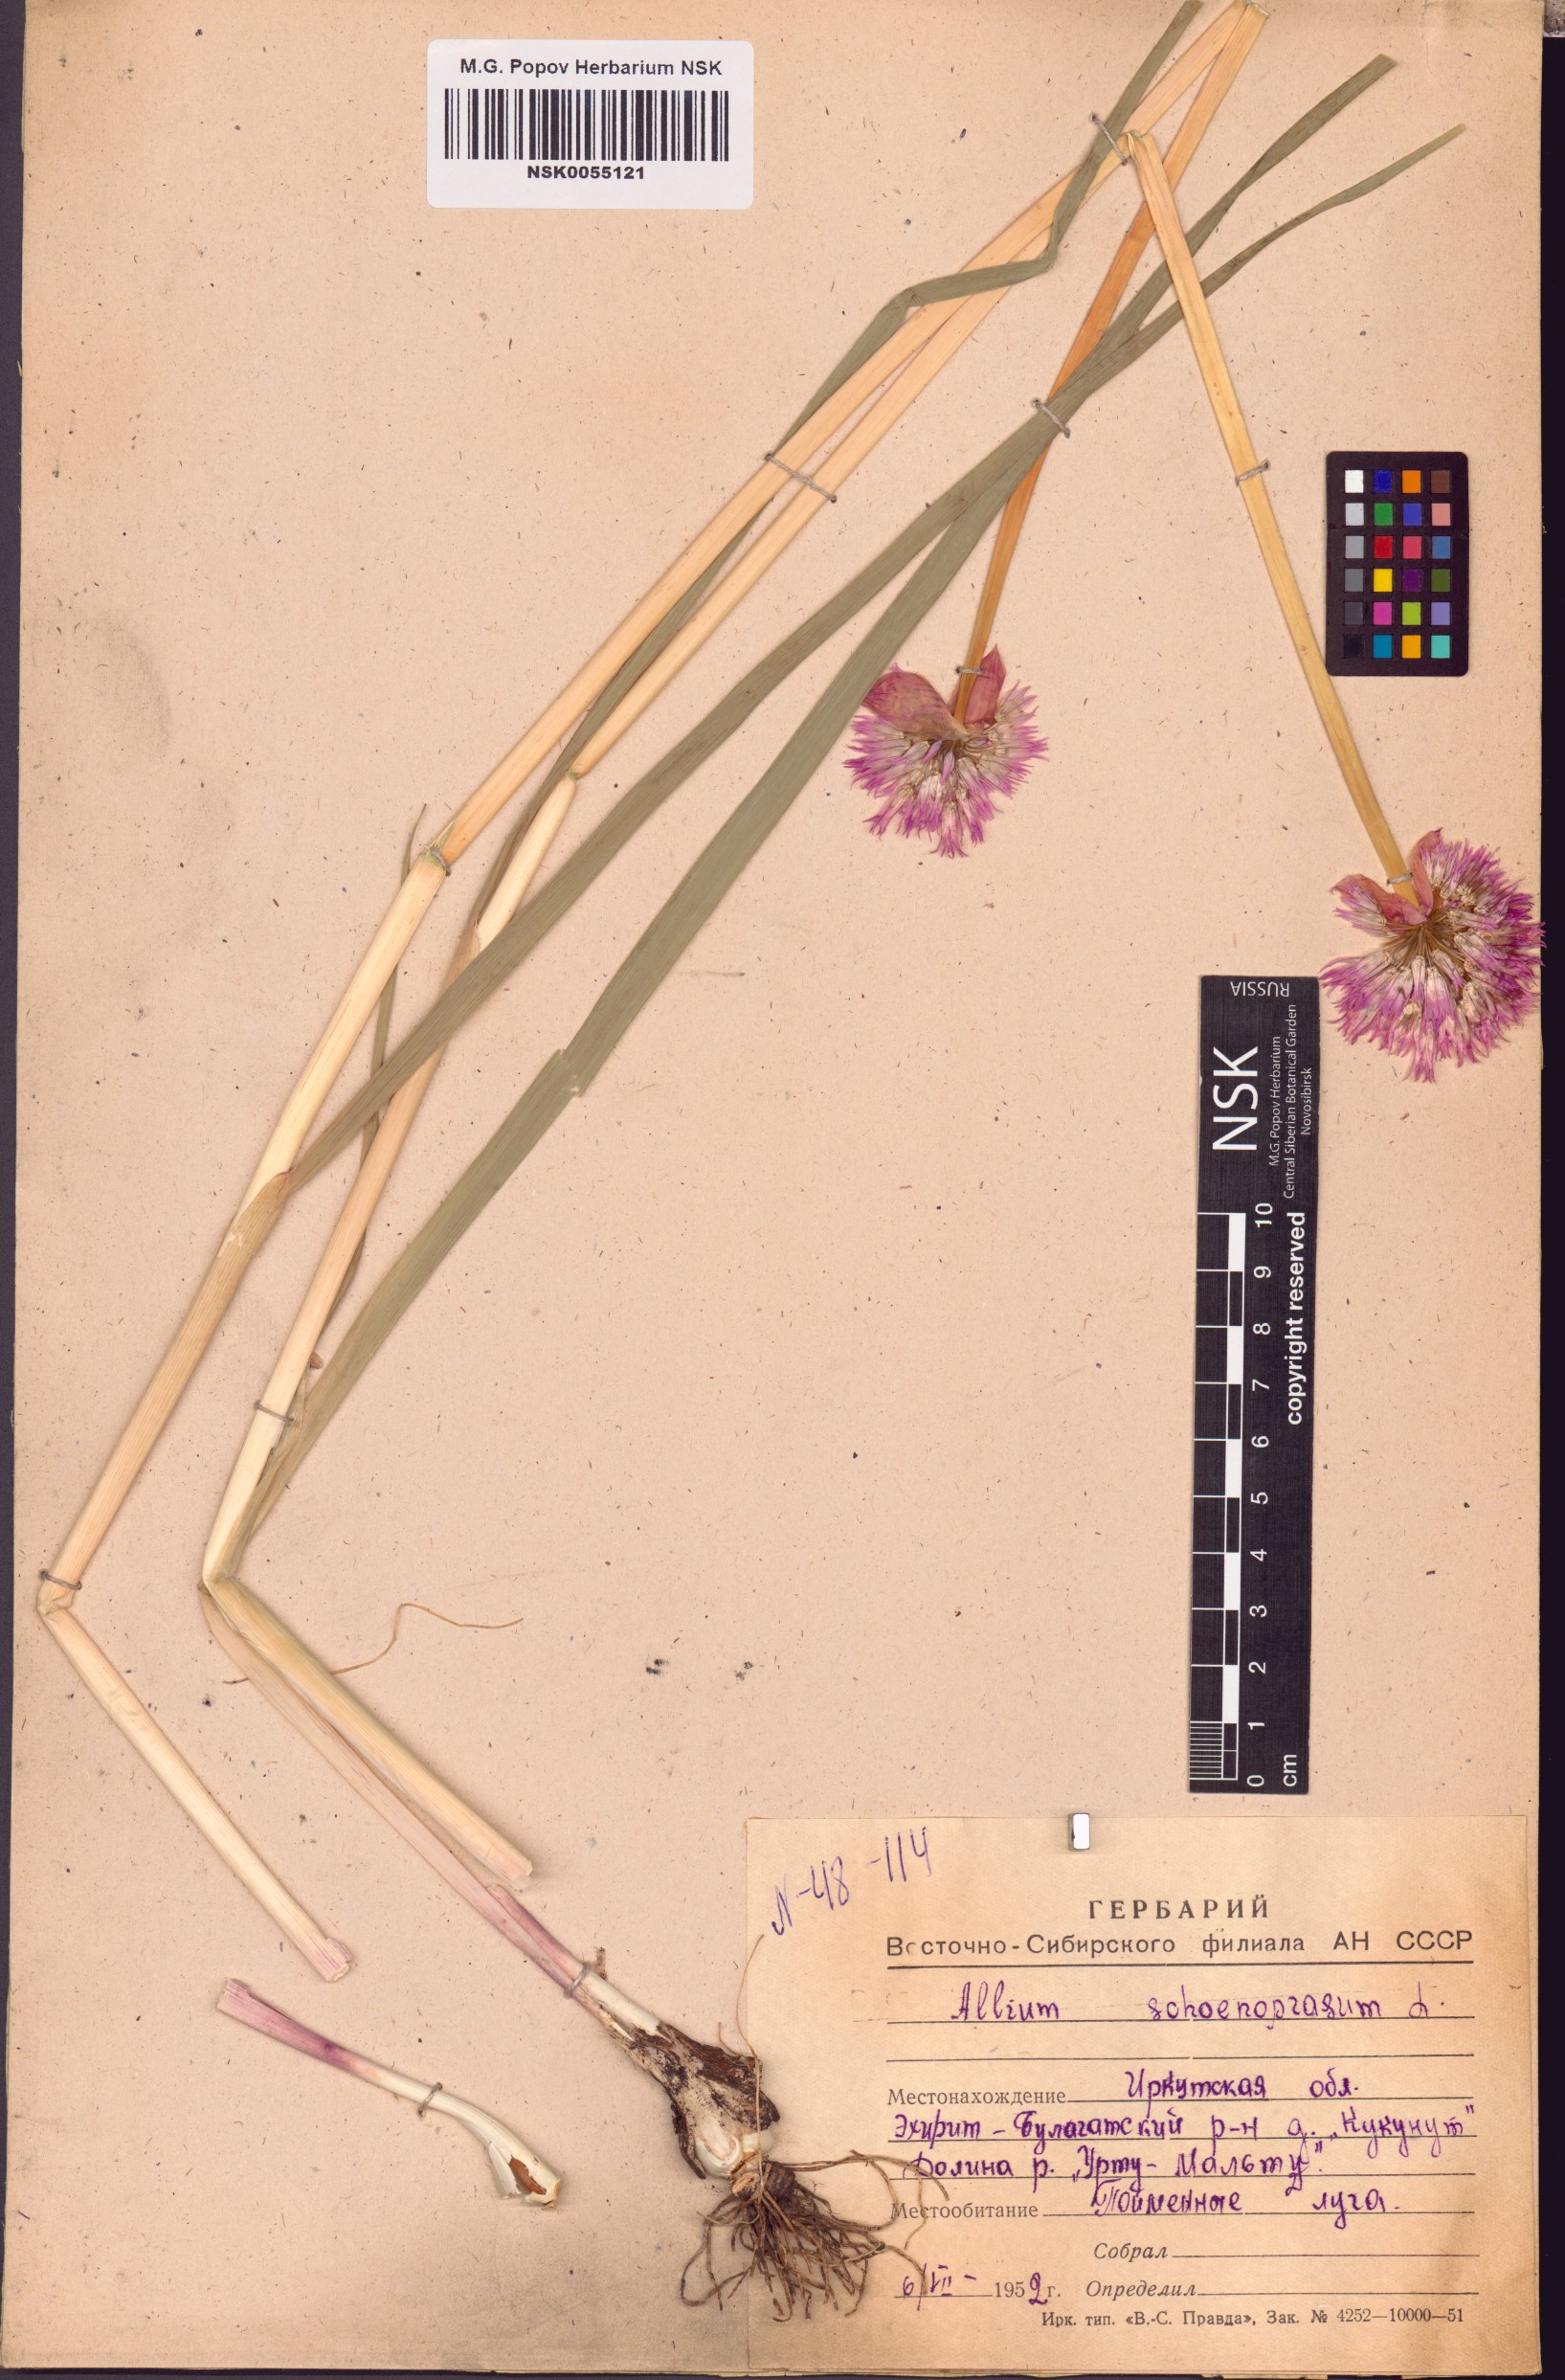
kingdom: Plantae
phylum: Tracheophyta
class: Liliopsida
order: Asparagales
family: Amaryllidaceae
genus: Allium
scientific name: Allium schoenoprasum
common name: Chives
